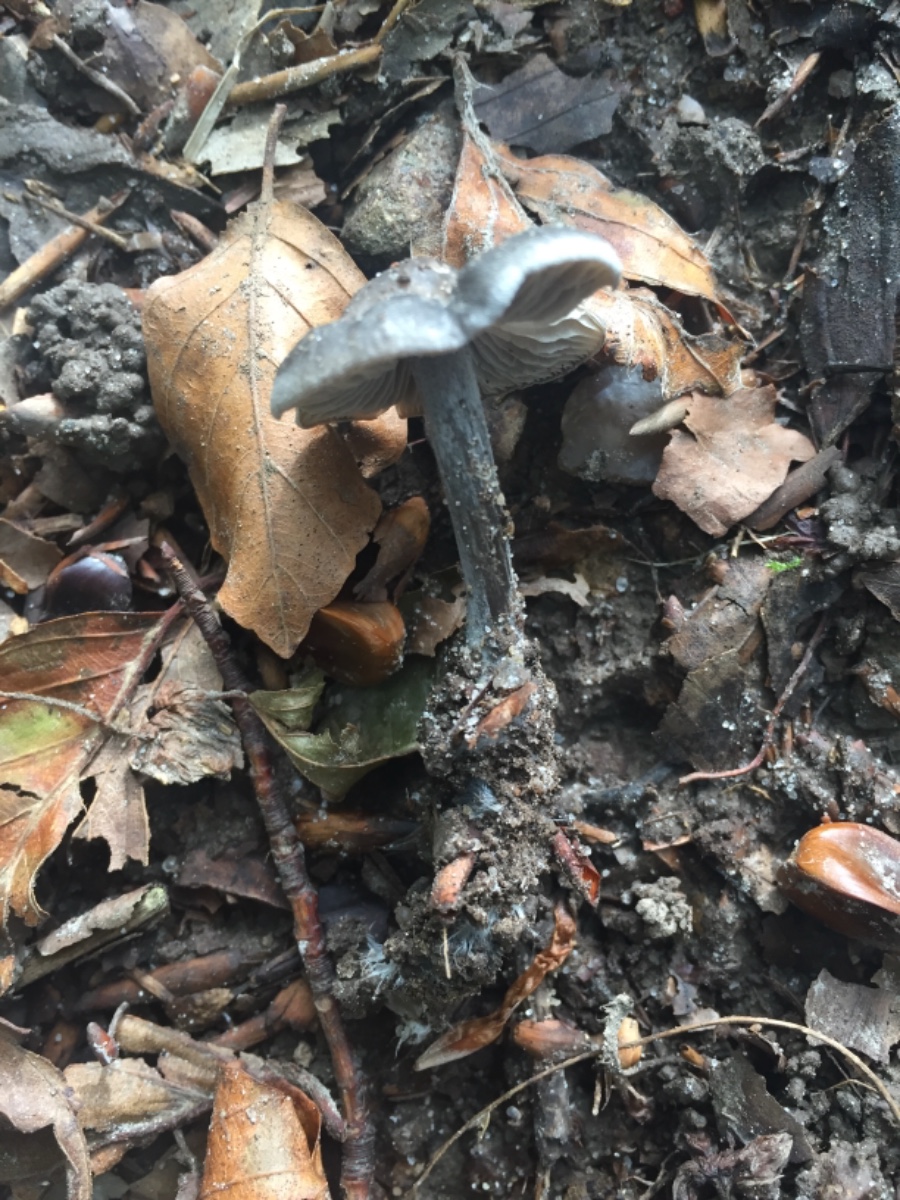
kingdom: Fungi
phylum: Basidiomycota
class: Agaricomycetes
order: Agaricales
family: Lyophyllaceae
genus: Tephrocybe
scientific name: Tephrocybe rancida
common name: mel-gråblad
